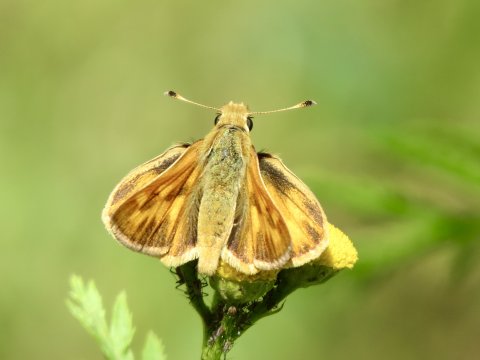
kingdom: Animalia
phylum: Arthropoda
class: Insecta
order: Lepidoptera
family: Hesperiidae
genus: Ochlodes
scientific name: Ochlodes sylvanoides
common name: Woodland Skipper
